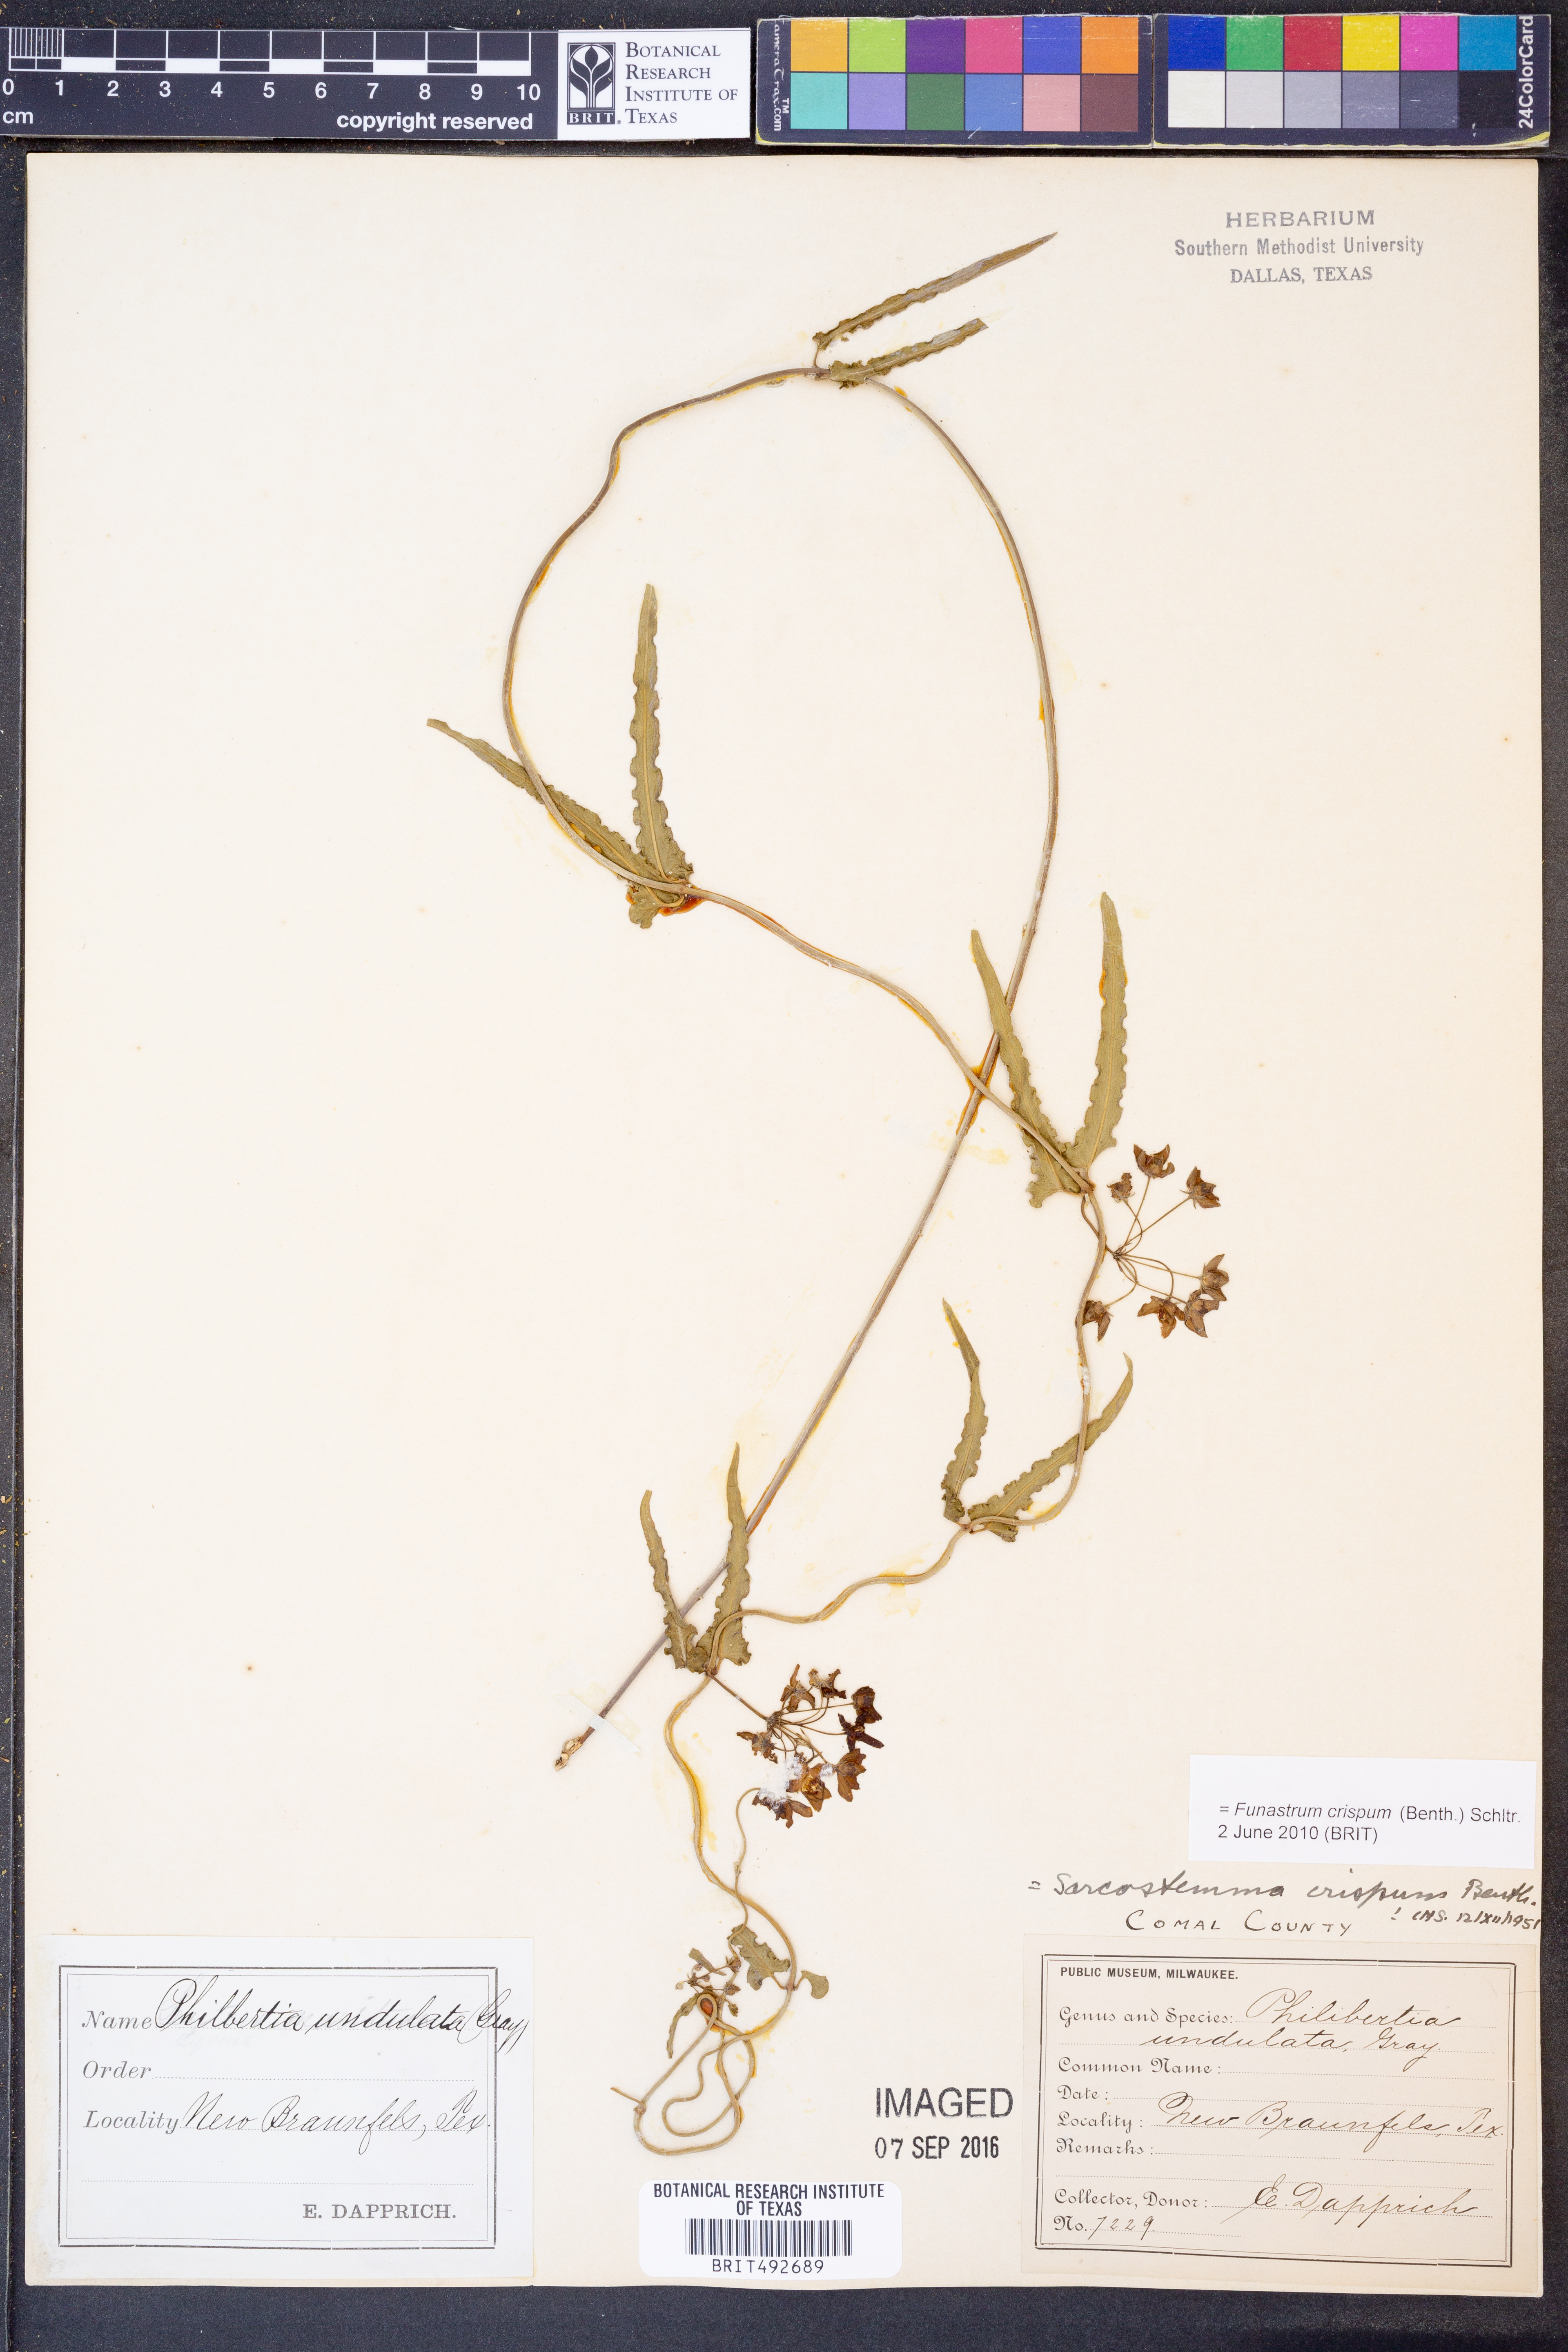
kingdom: Plantae
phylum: Tracheophyta
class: Magnoliopsida
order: Gentianales
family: Apocynaceae
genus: Funastrum
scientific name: Funastrum crispum
